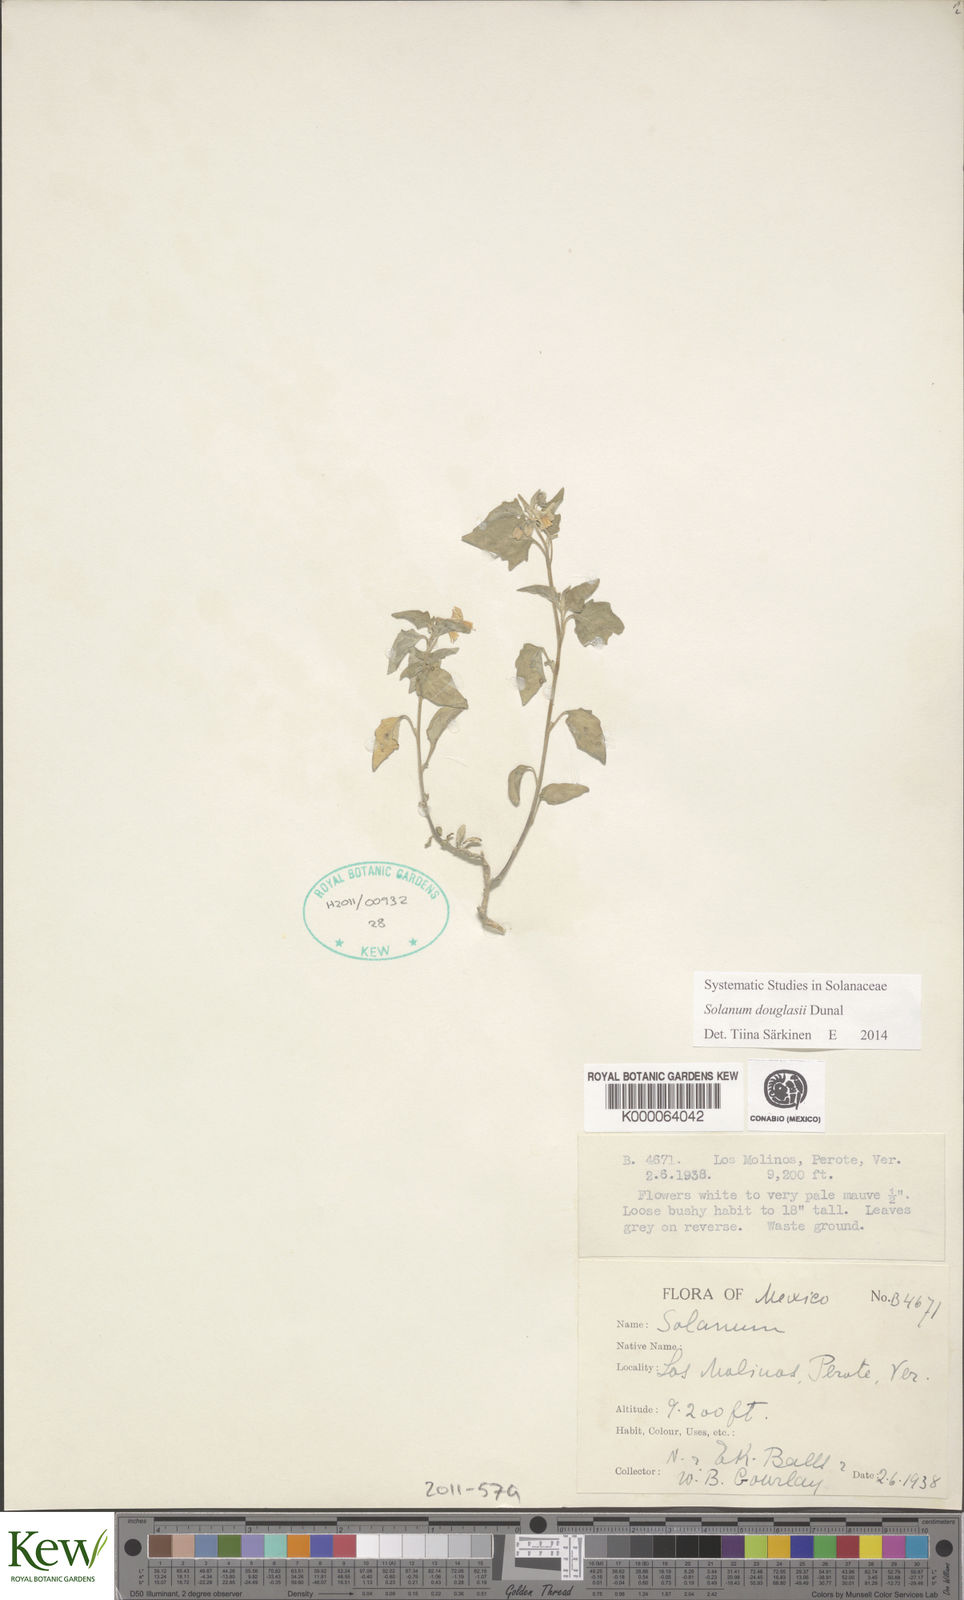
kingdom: Plantae
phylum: Tracheophyta
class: Magnoliopsida
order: Solanales
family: Solanaceae
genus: Solanum
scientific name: Solanum
